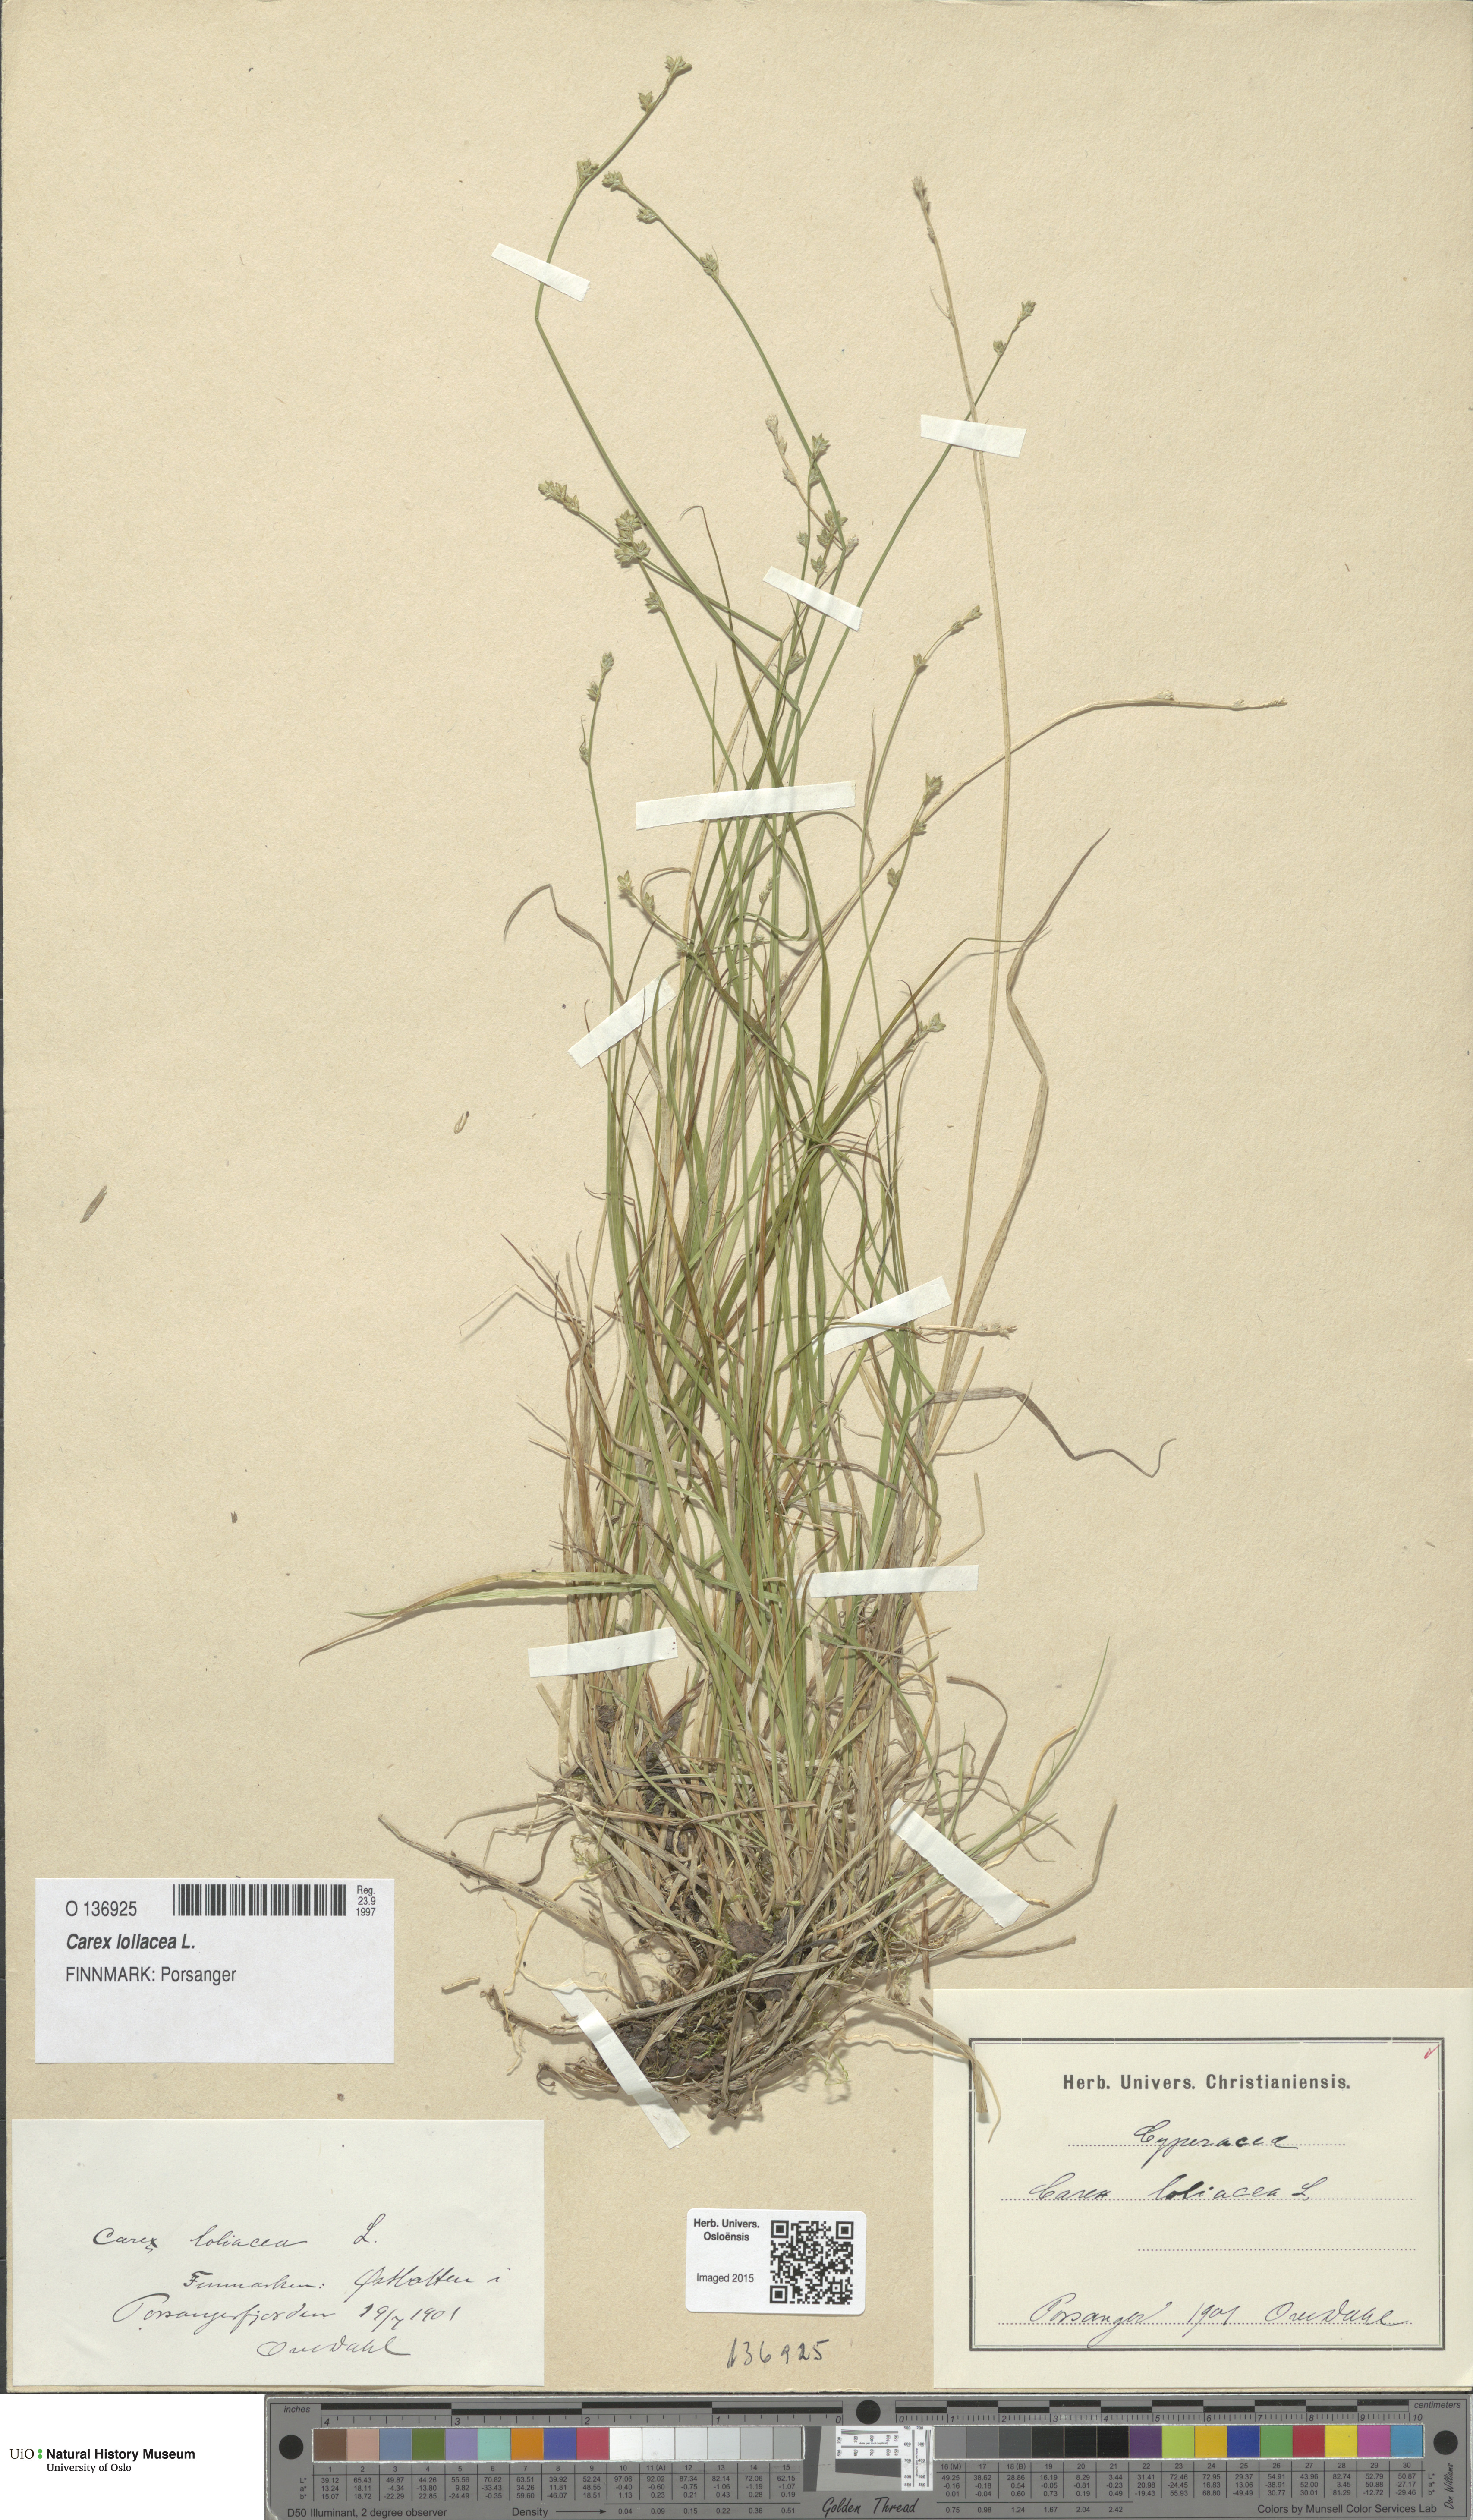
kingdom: Plantae
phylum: Tracheophyta
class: Liliopsida
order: Poales
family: Cyperaceae
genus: Carex
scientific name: Carex loliacea
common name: Ryegrass sedge
